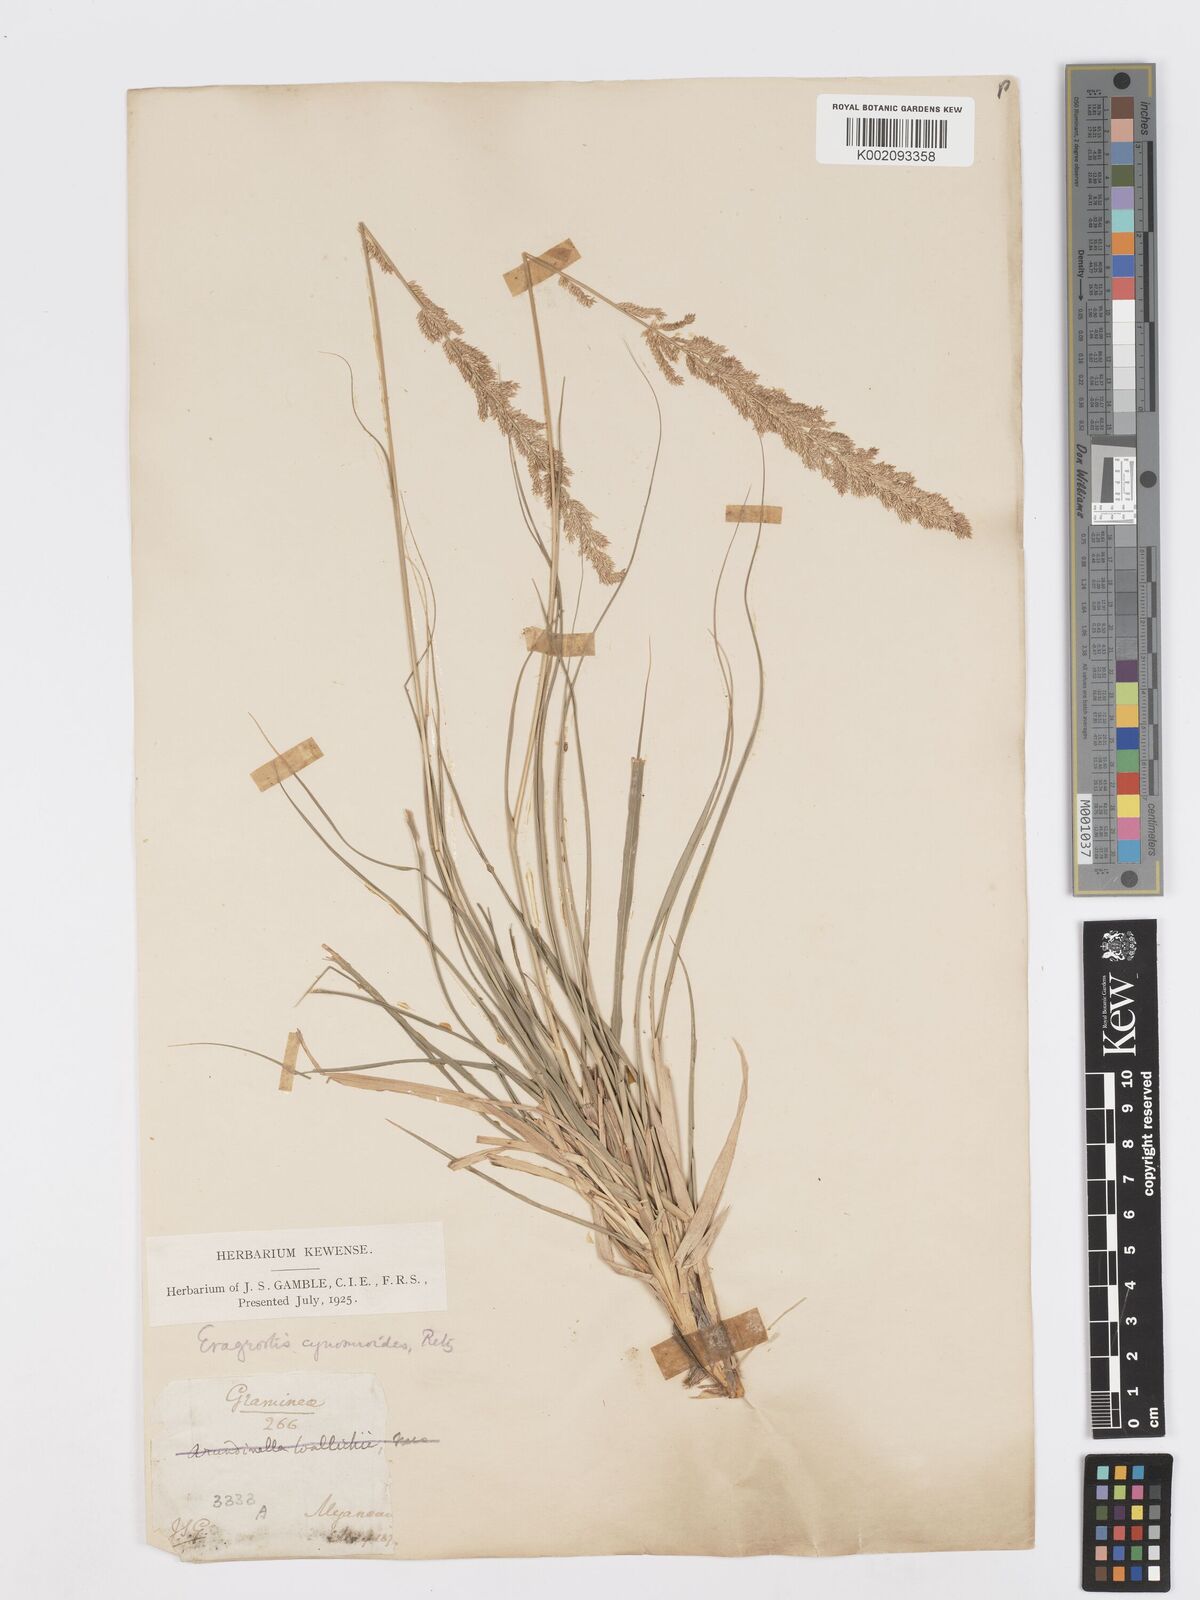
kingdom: Plantae
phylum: Tracheophyta
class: Liliopsida
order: Poales
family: Poaceae
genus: Desmostachya
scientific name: Desmostachya bipinnata
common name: Crowfoot grass
